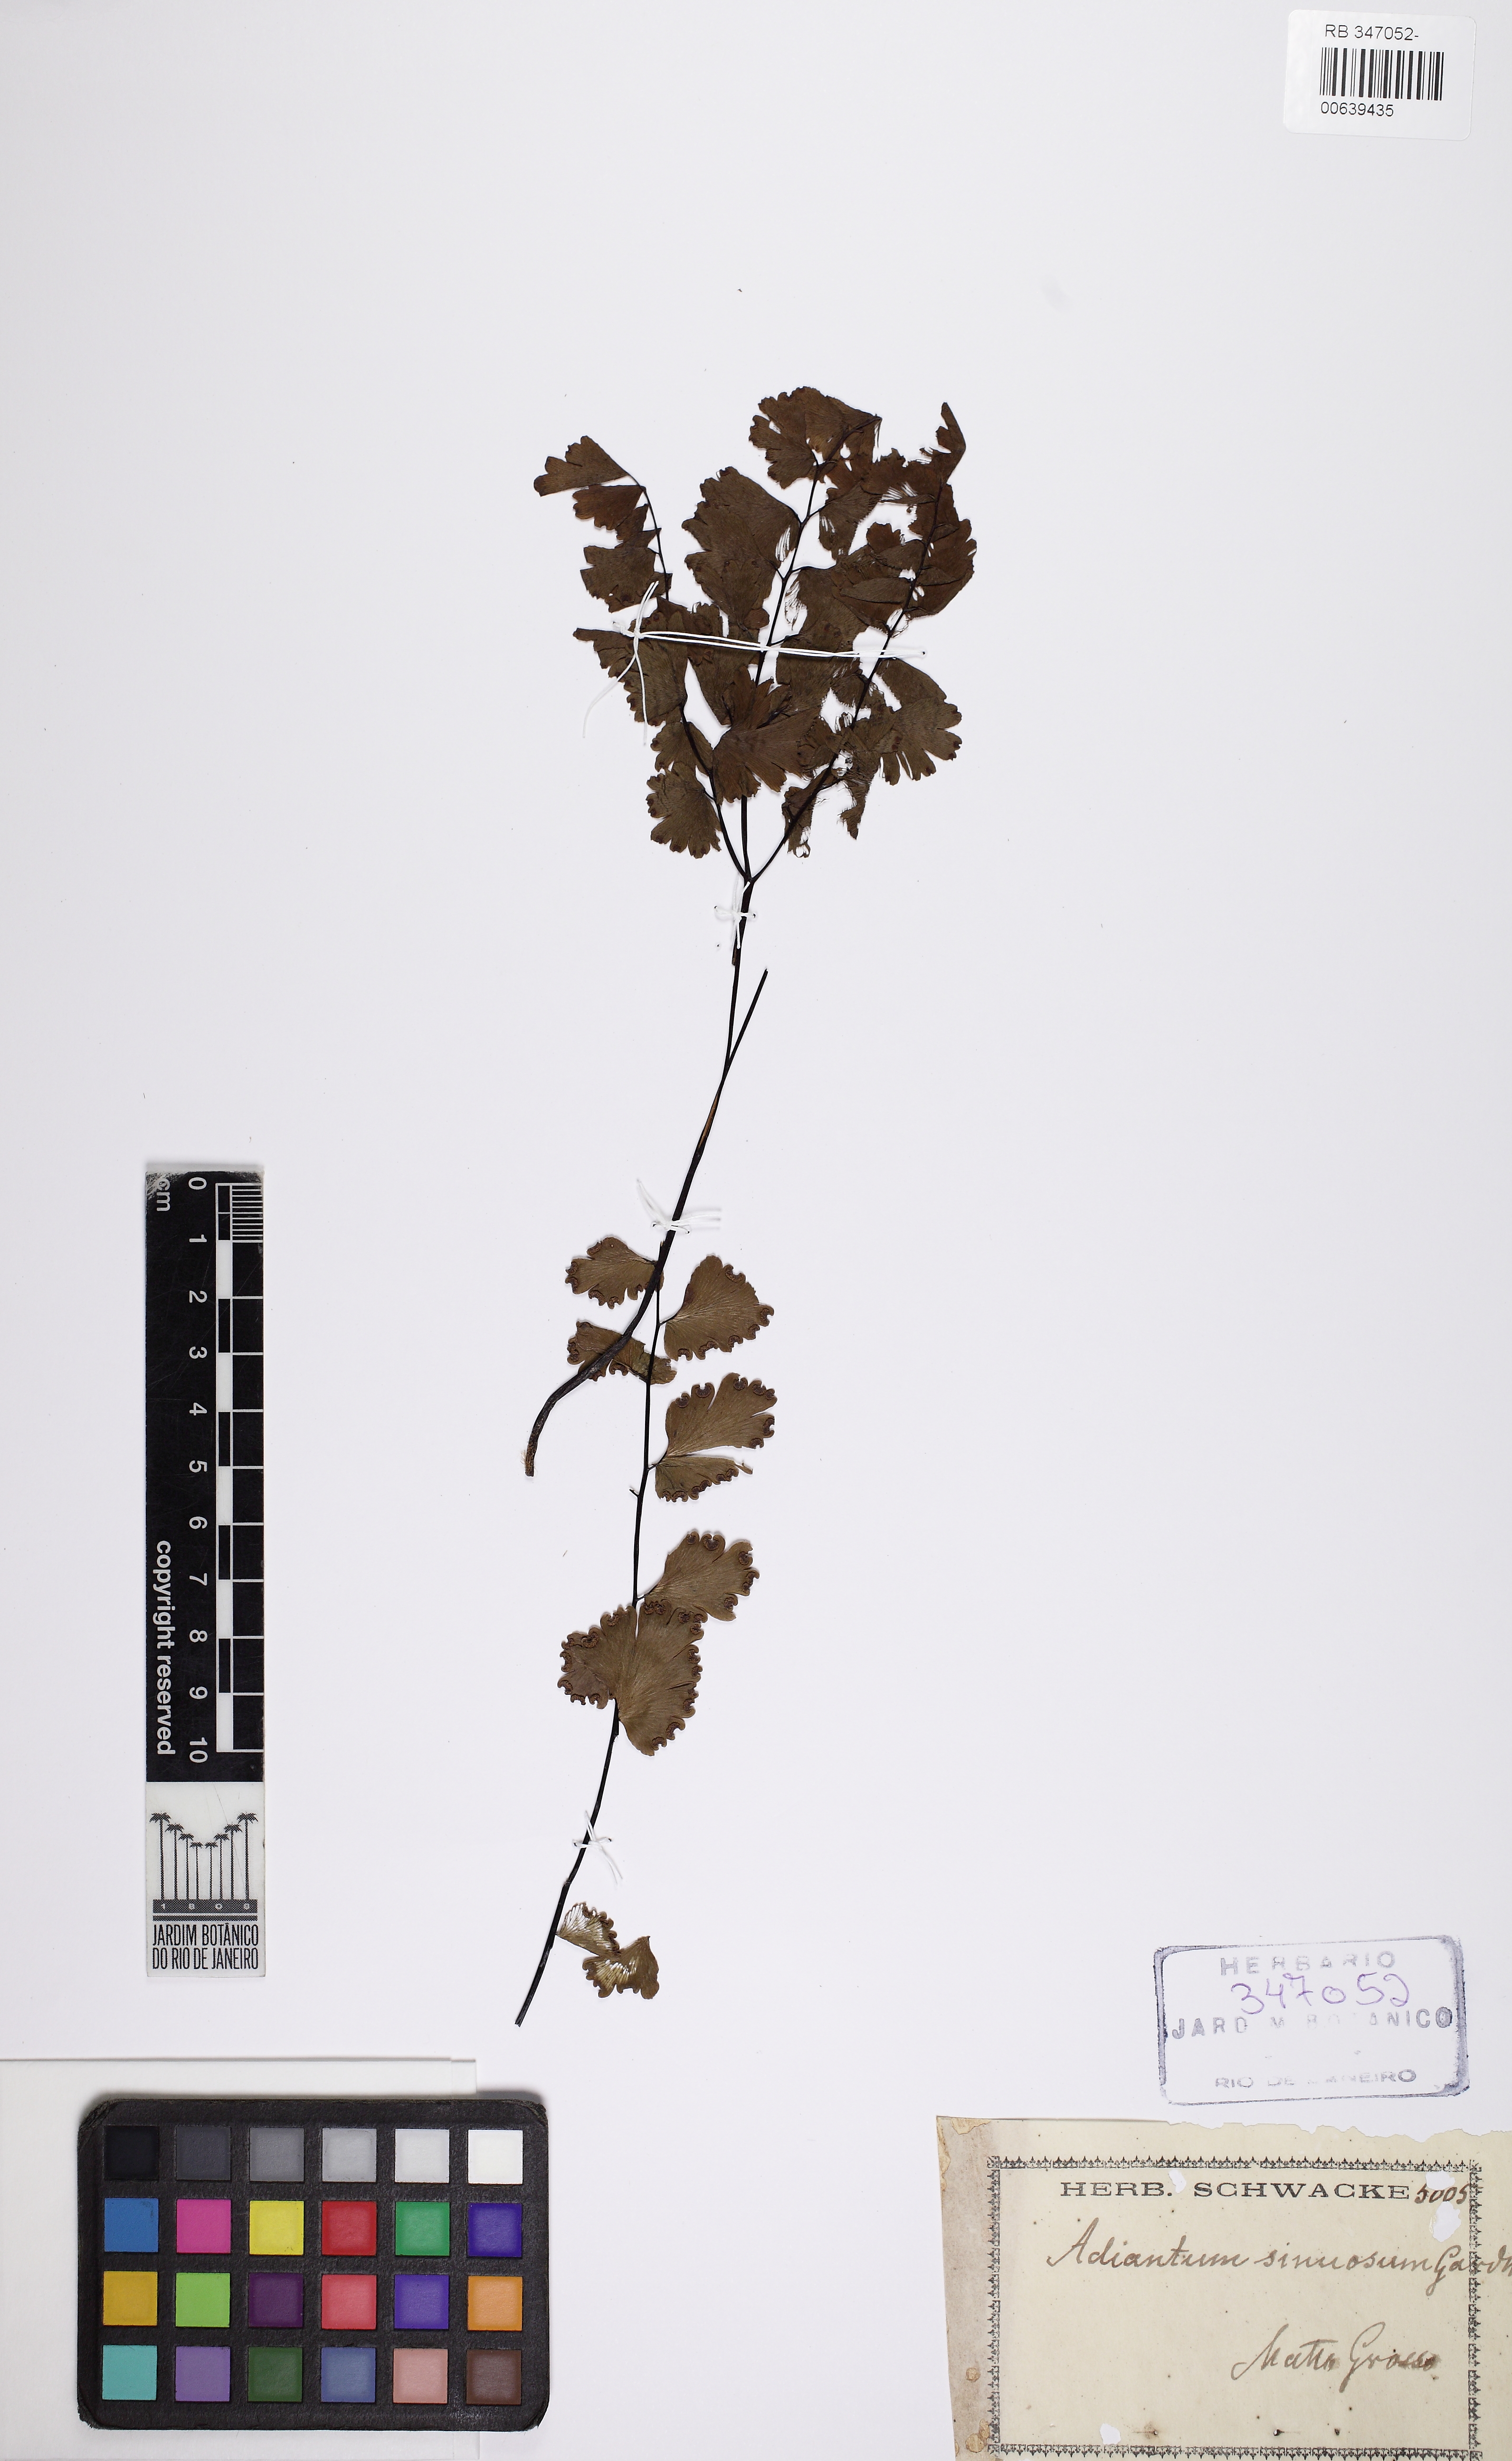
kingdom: Plantae
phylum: Tracheophyta
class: Polypodiopsida
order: Polypodiales
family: Pteridaceae
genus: Adiantum
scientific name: Adiantum sinuosum
